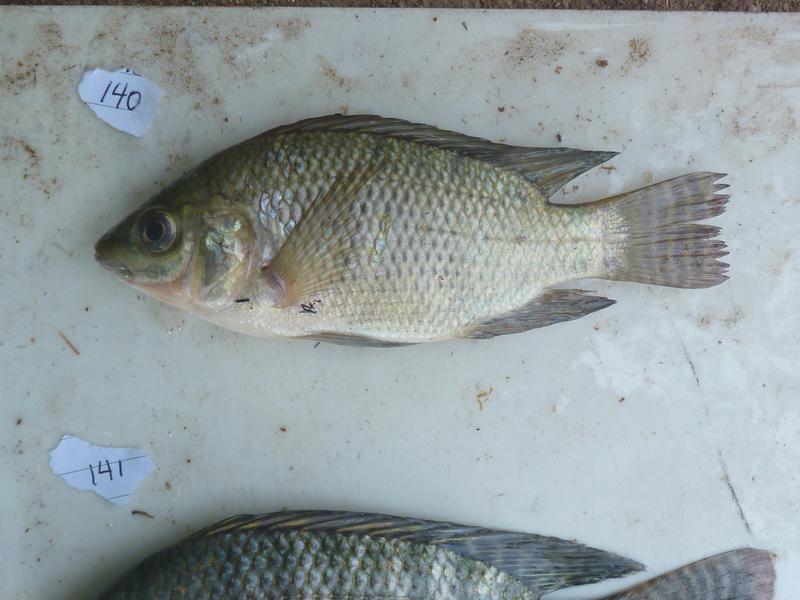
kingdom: Animalia
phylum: Chordata
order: Perciformes
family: Cichlidae
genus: Oreochromis
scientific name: Oreochromis
